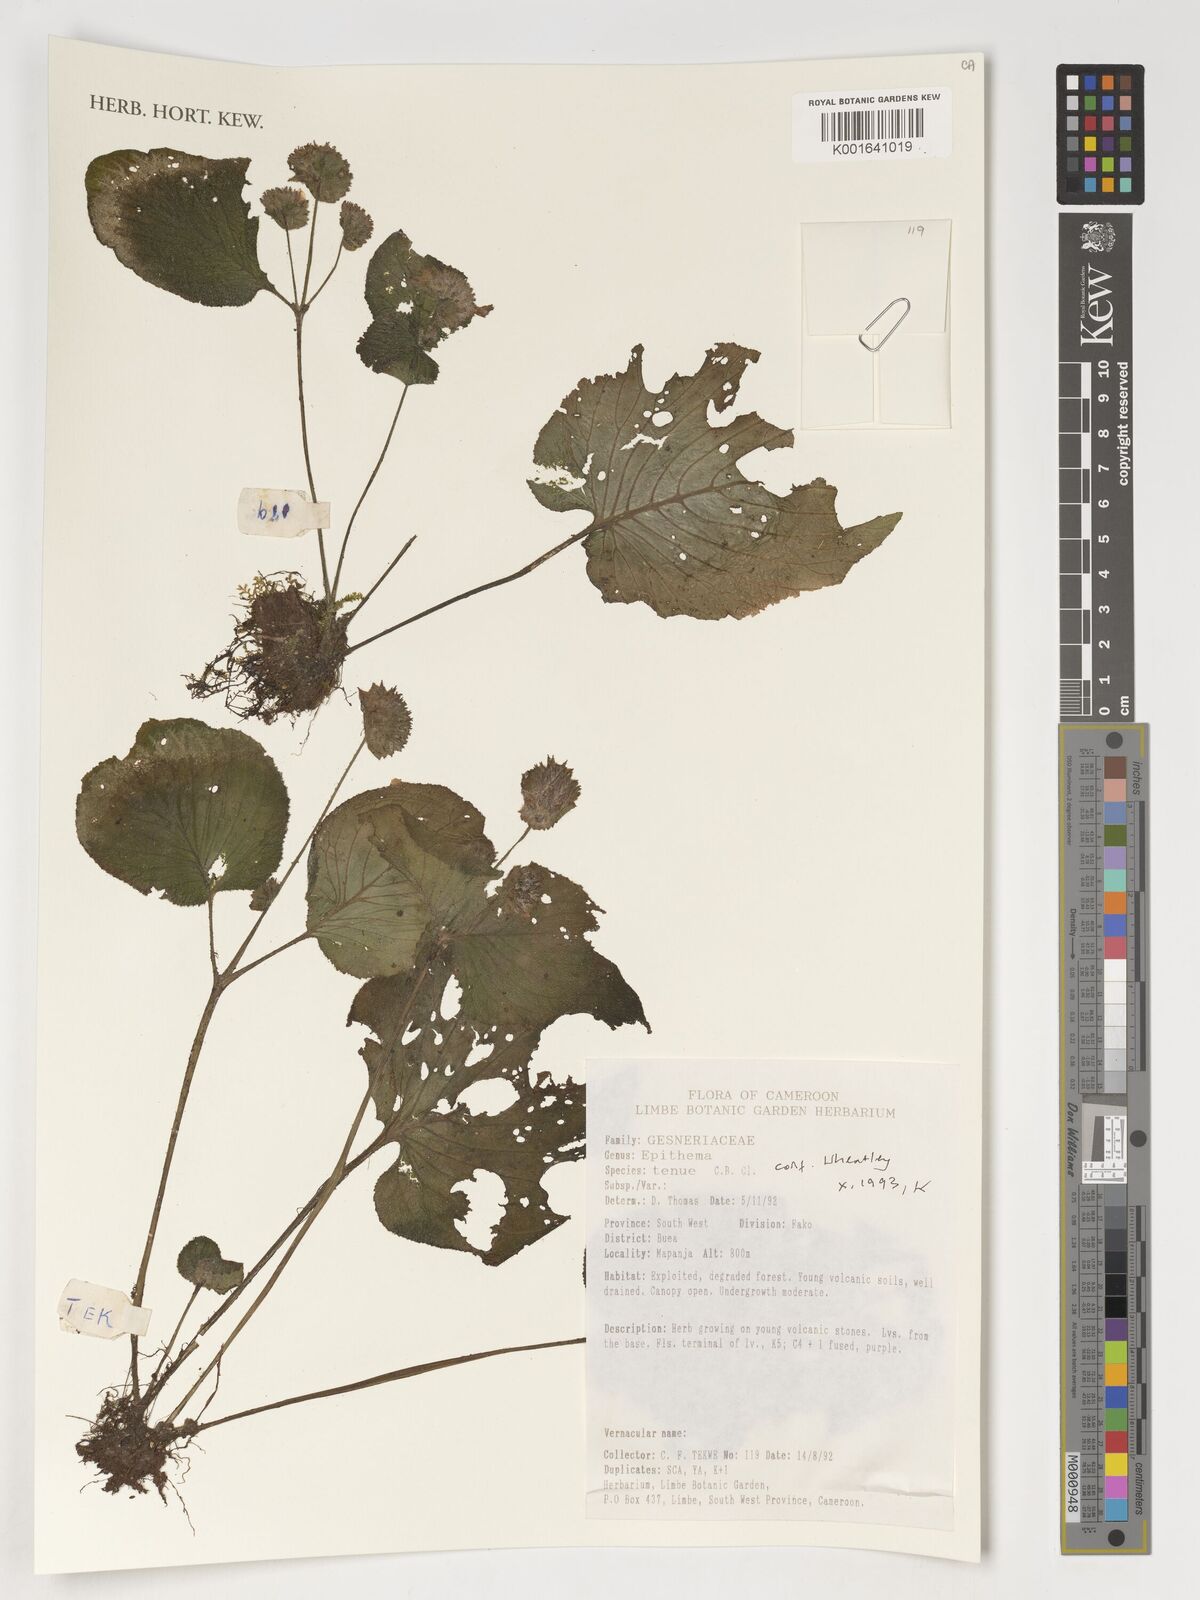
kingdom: Plantae
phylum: Tracheophyta
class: Magnoliopsida
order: Lamiales
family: Gesneriaceae
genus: Epithema
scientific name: Epithema tenue
